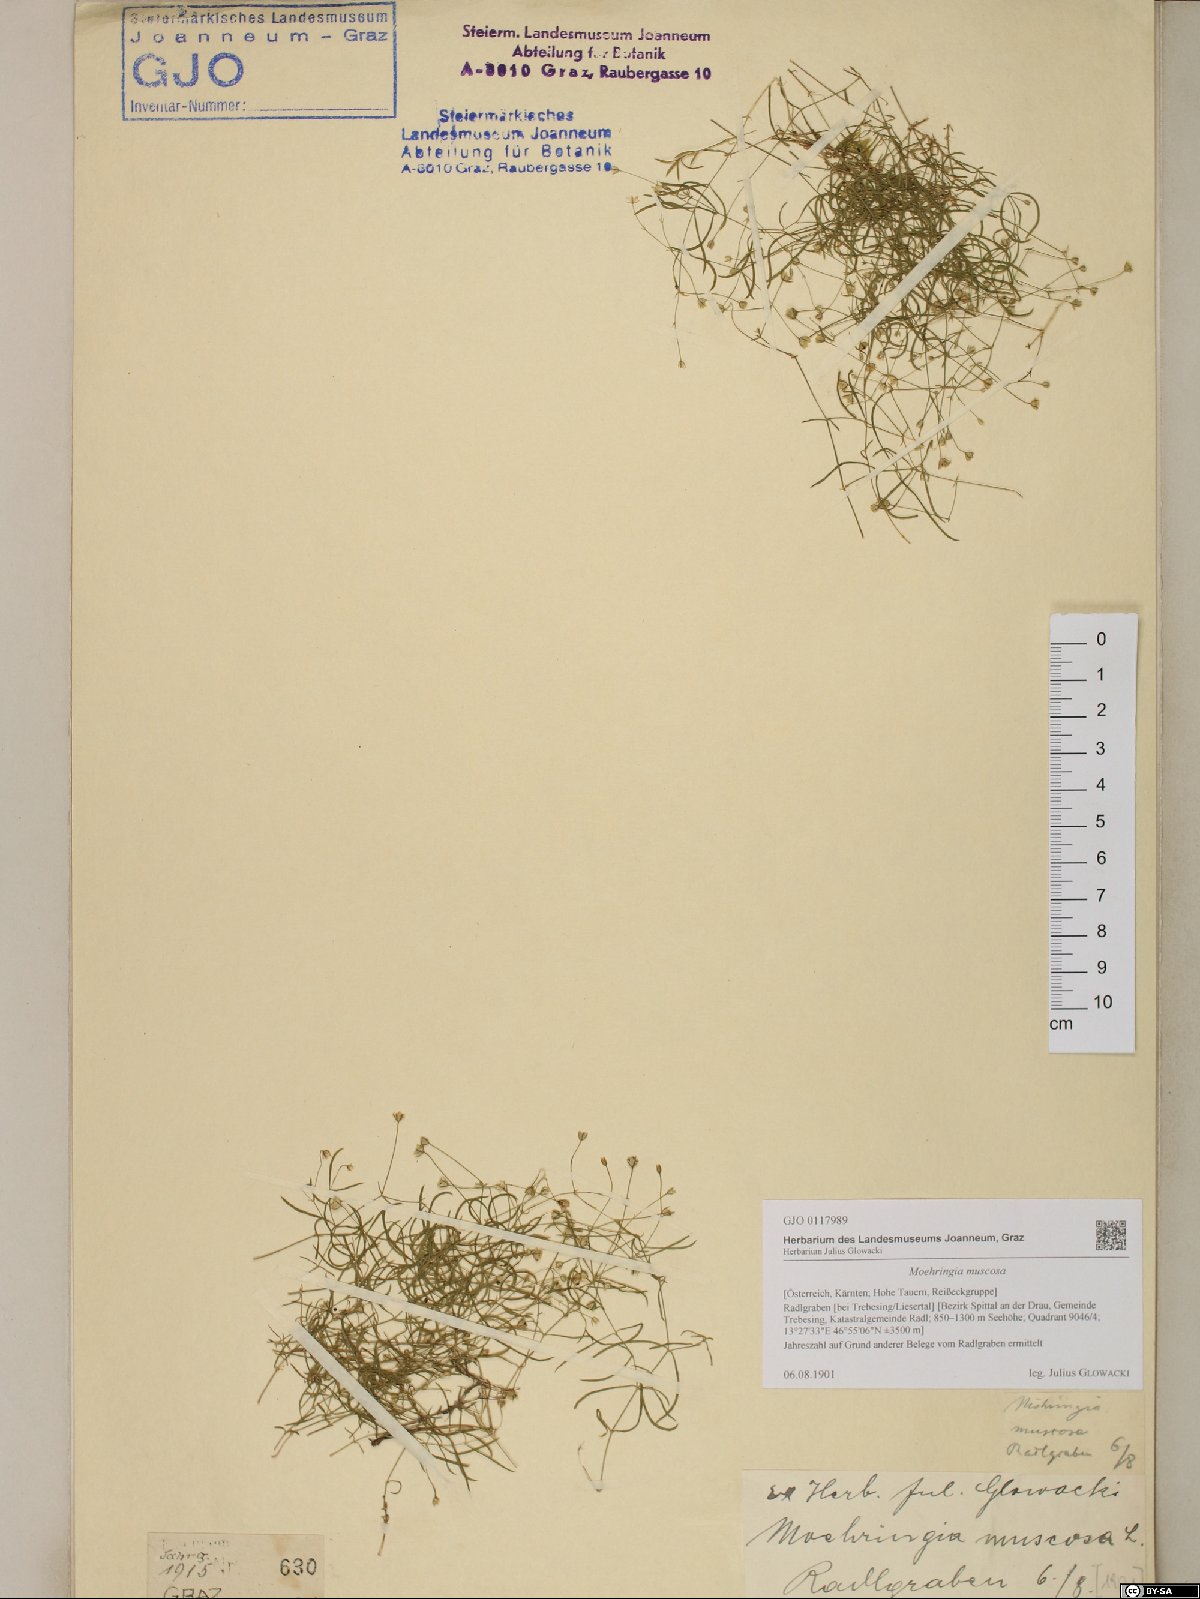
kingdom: Plantae
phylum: Tracheophyta
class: Magnoliopsida
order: Caryophyllales
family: Caryophyllaceae
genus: Moehringia
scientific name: Moehringia muscosa
